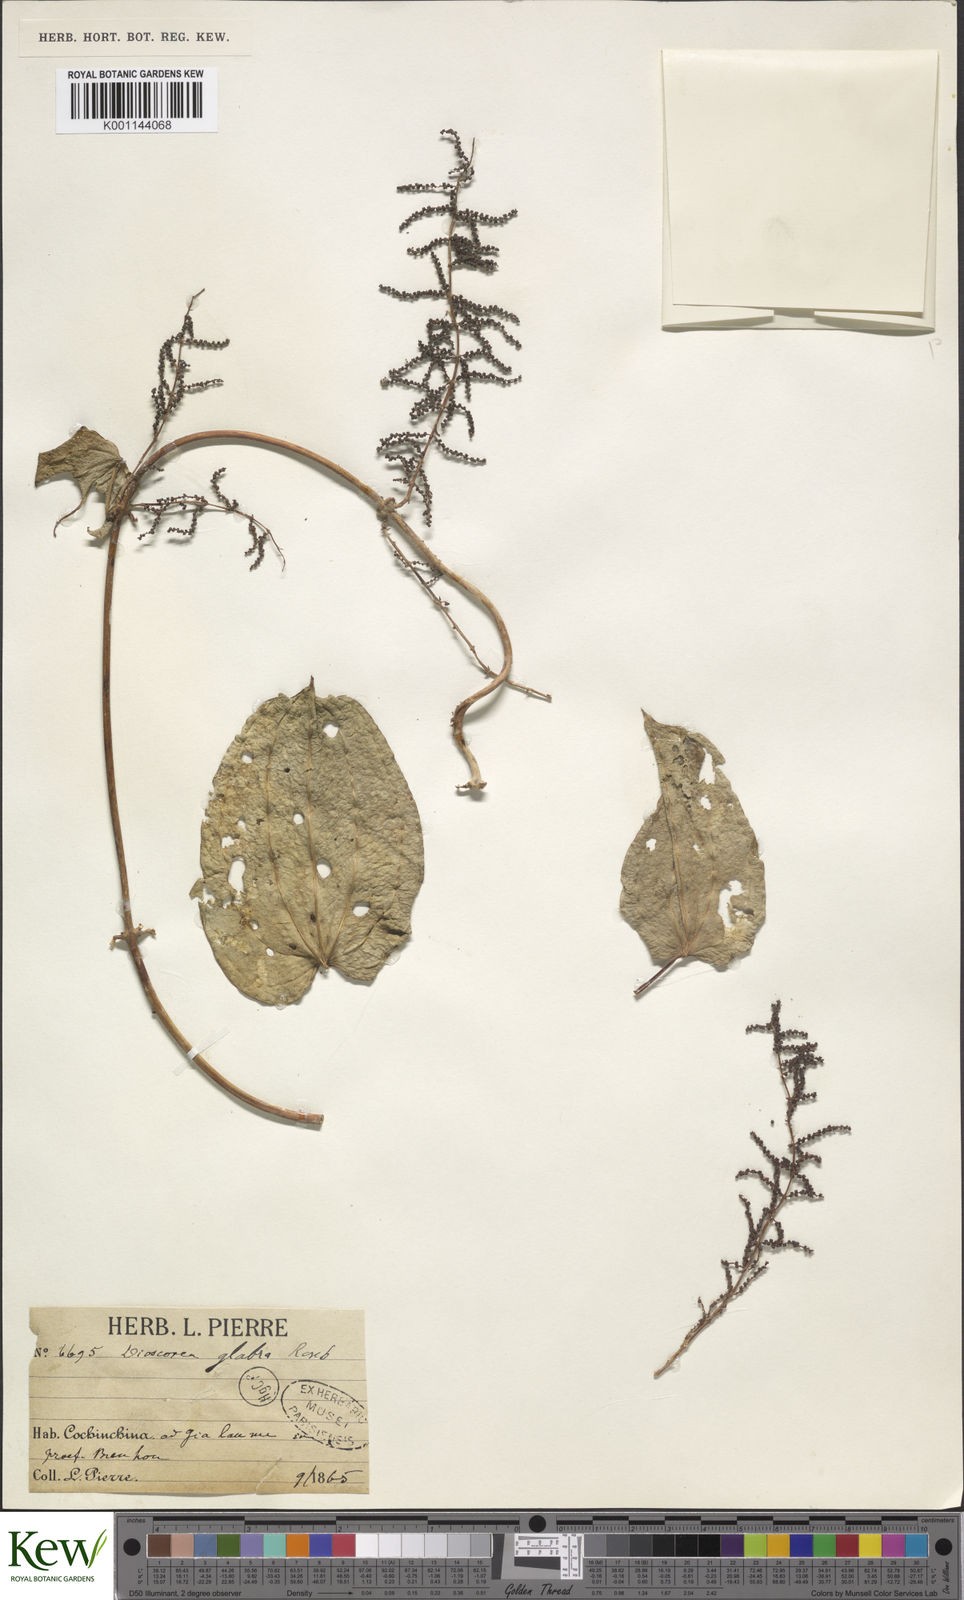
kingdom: Plantae
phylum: Tracheophyta
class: Liliopsida
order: Dioscoreales
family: Dioscoreaceae
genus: Dioscorea
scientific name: Dioscorea glabra
